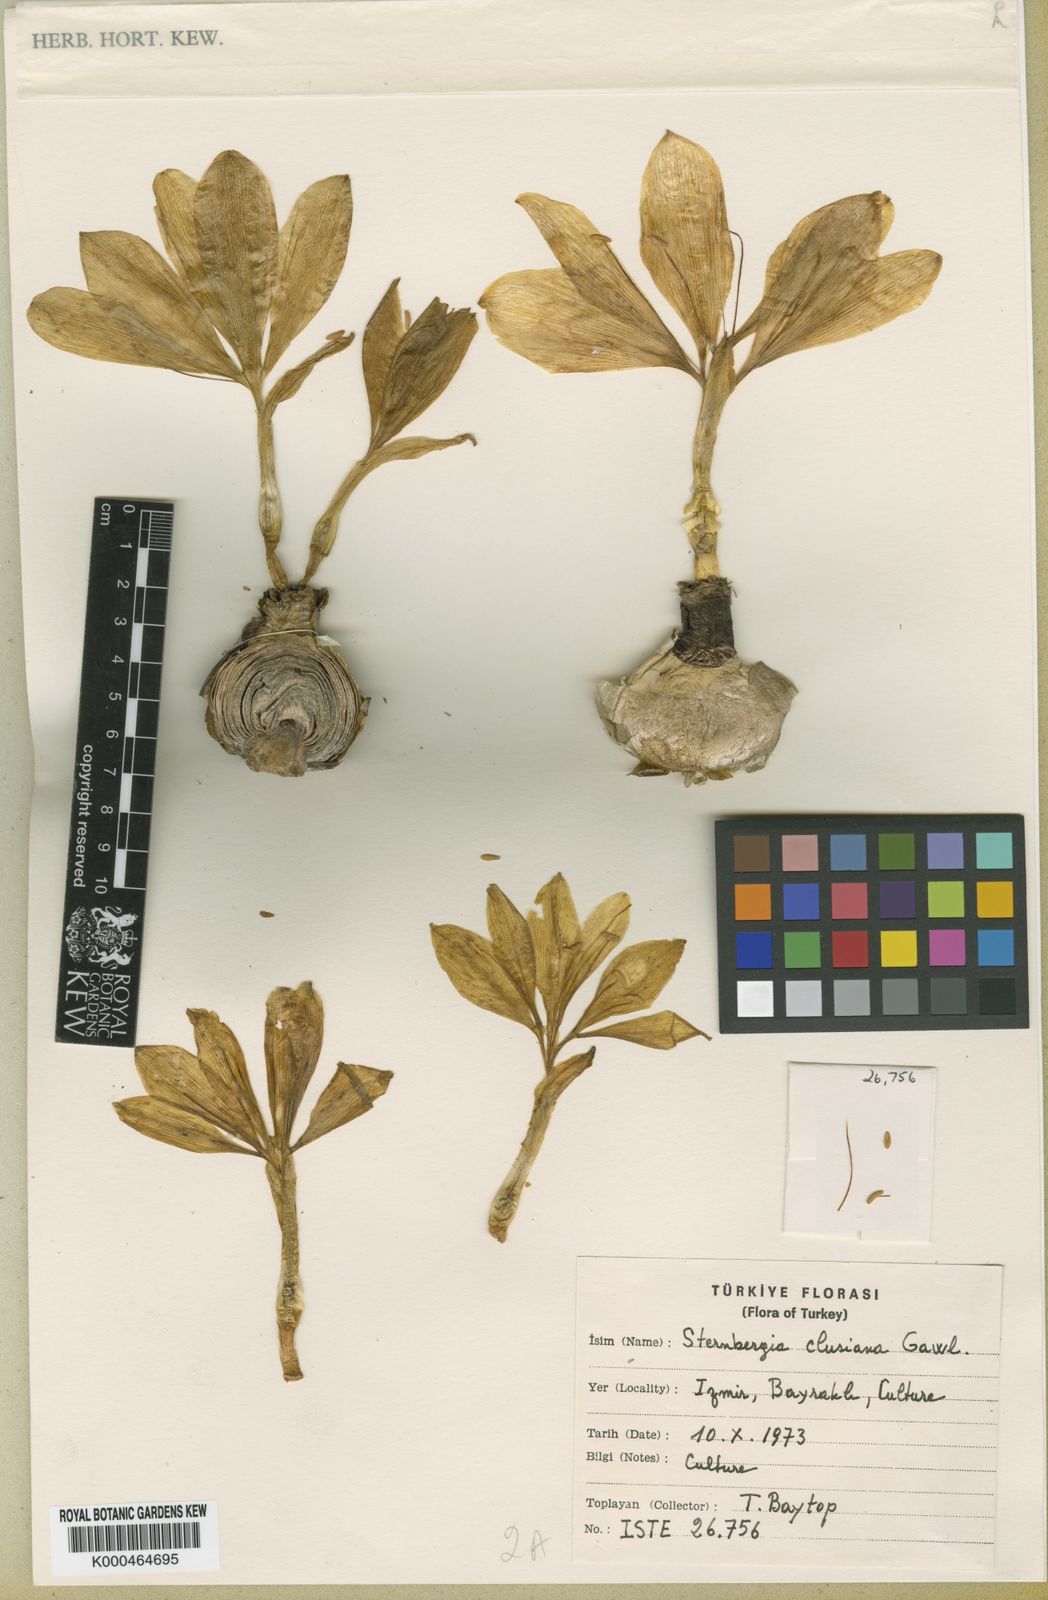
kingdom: Plantae
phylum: Tracheophyta
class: Liliopsida
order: Asparagales
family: Amaryllidaceae
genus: Sternbergia
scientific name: Sternbergia
